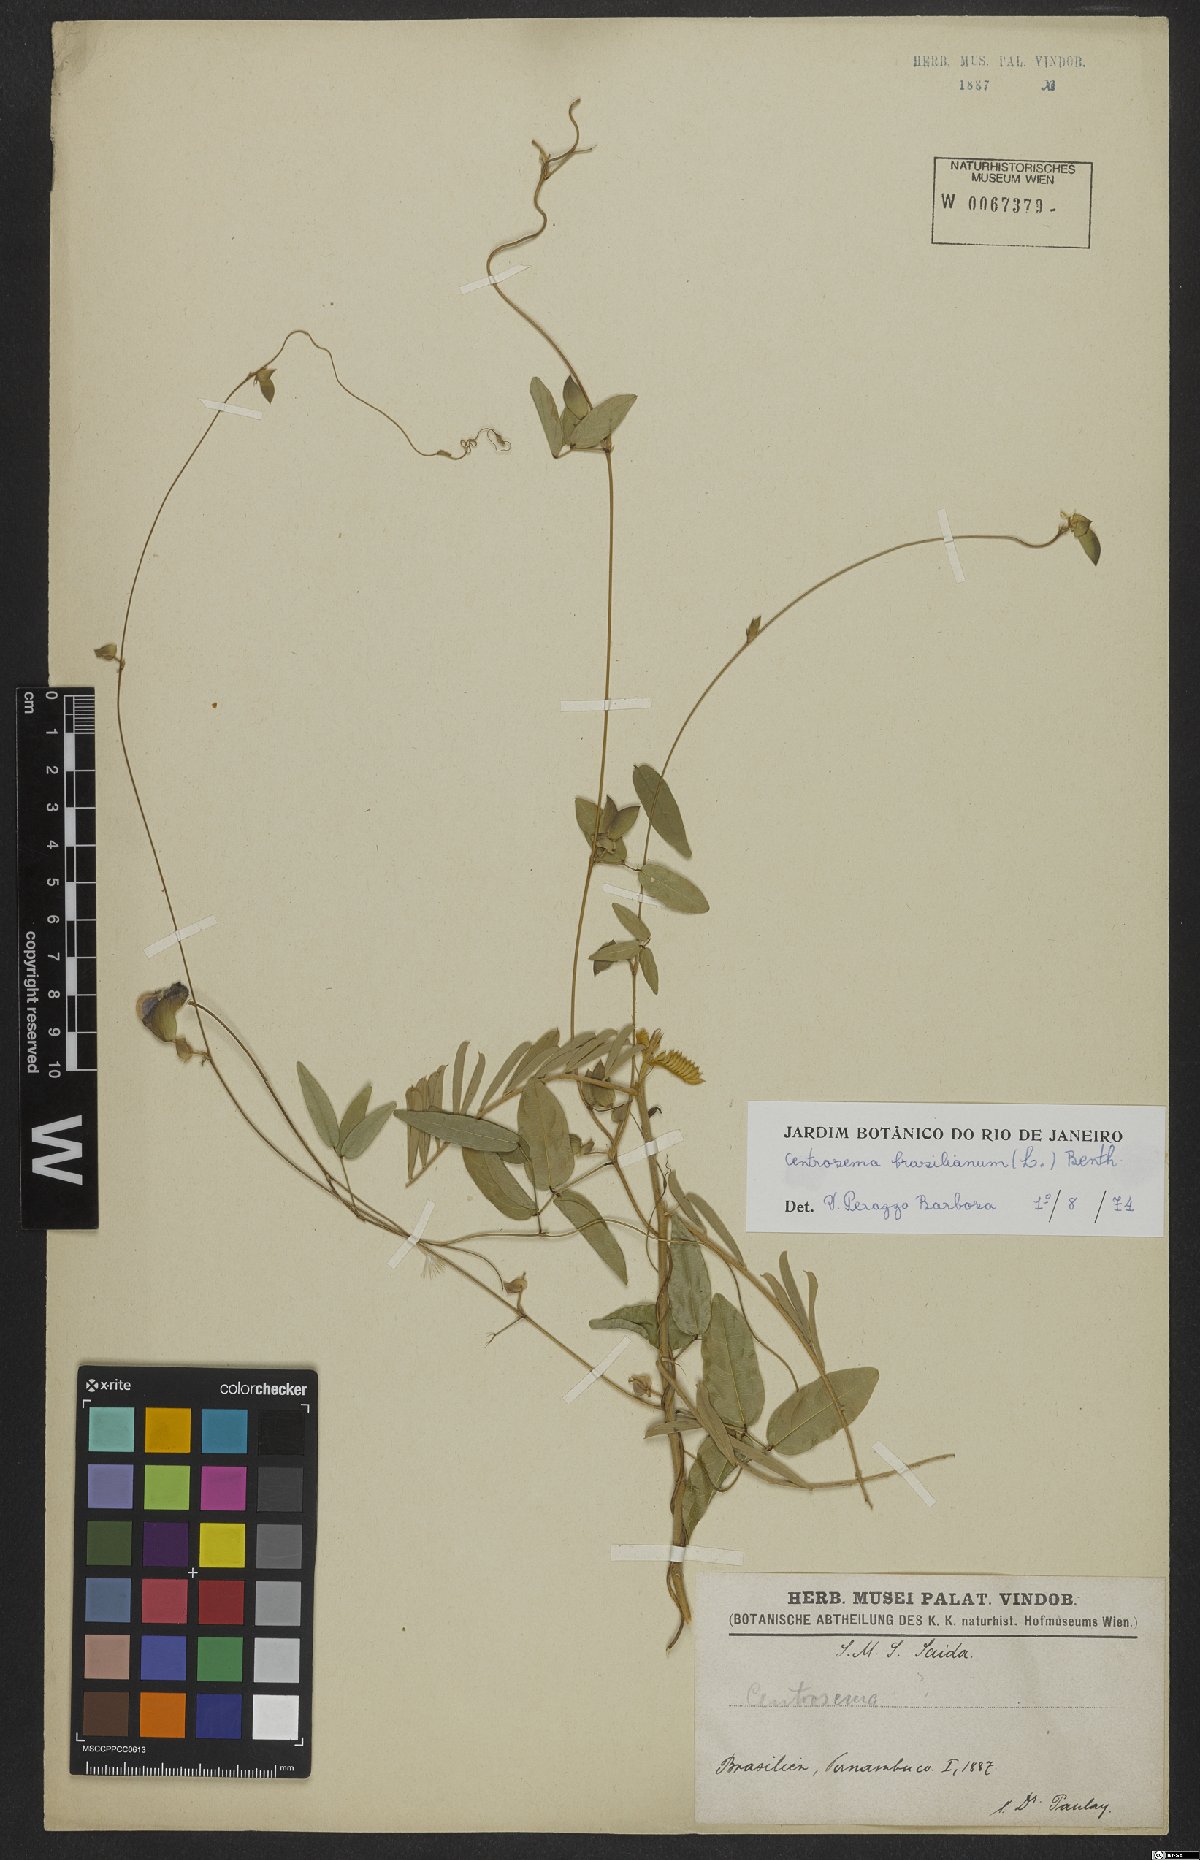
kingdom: Plantae
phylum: Tracheophyta
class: Magnoliopsida
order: Fabales
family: Fabaceae
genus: Centrosema
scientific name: Centrosema brasilianum
